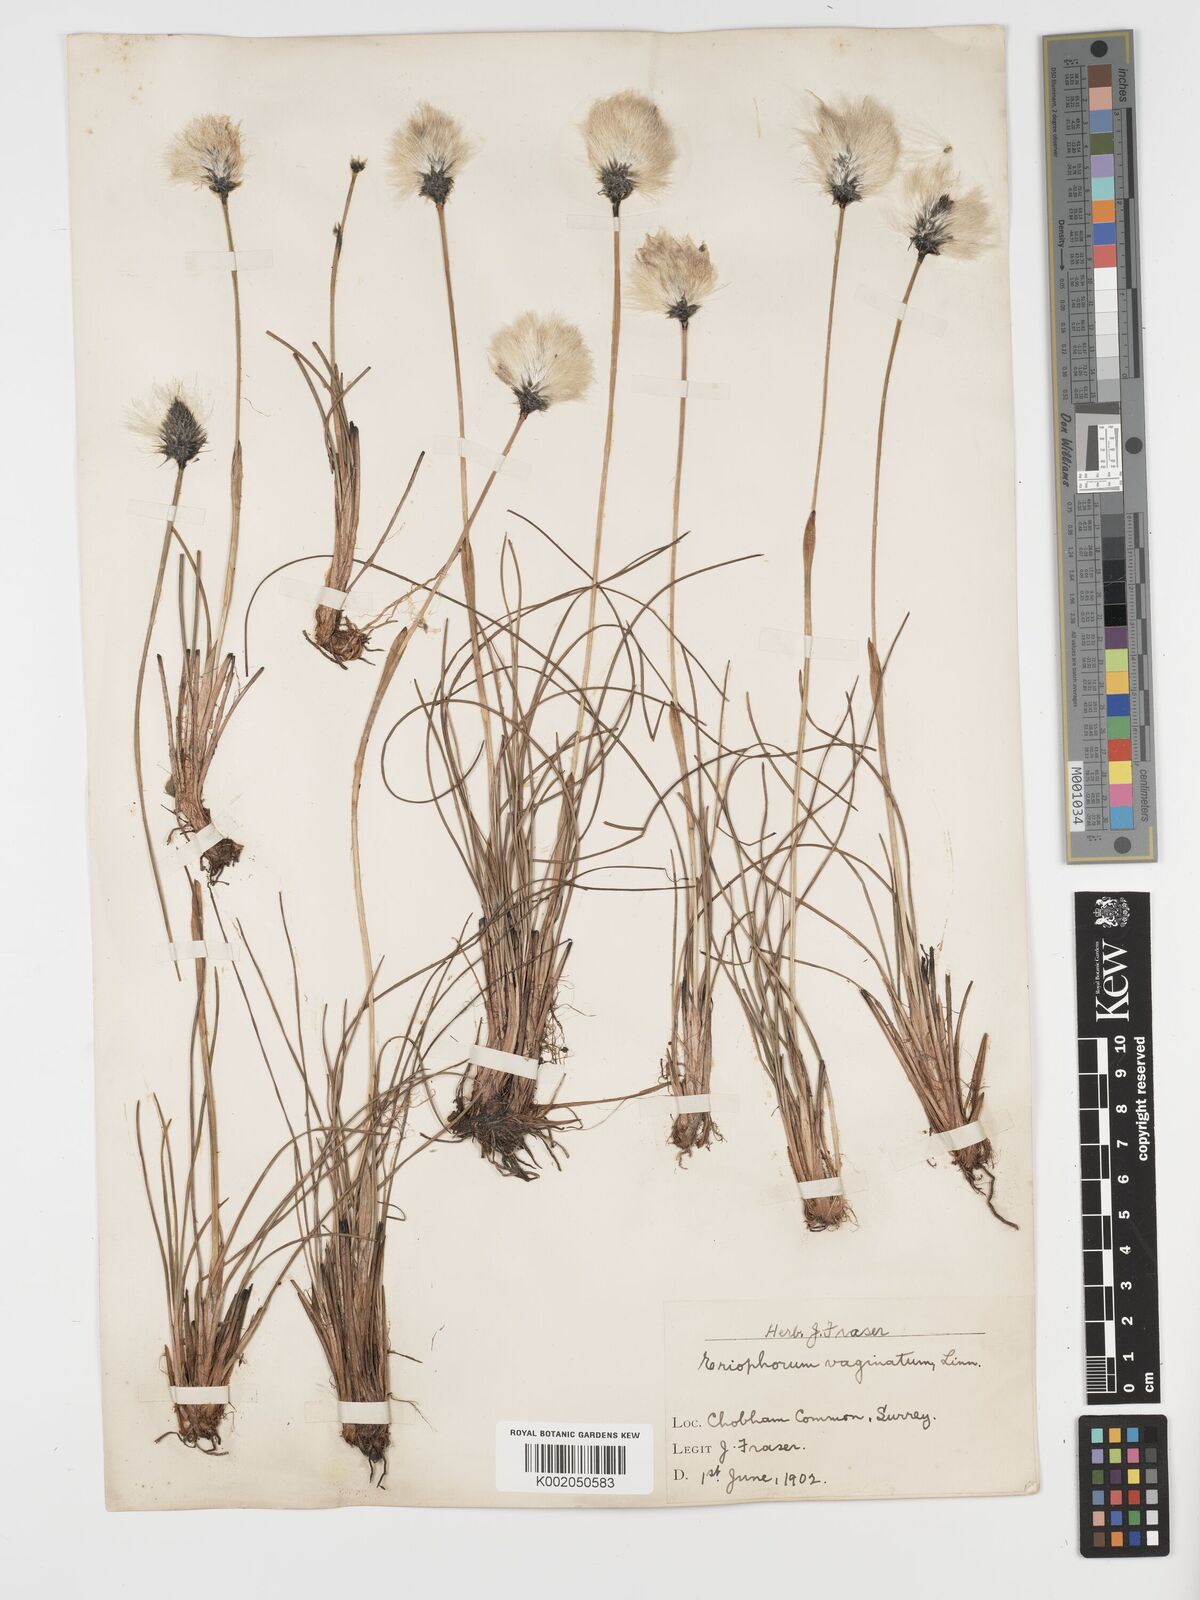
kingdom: Plantae
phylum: Tracheophyta
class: Liliopsida
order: Poales
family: Cyperaceae
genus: Eriophorum
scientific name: Eriophorum vaginatum
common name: Hare's-tail cottongrass
